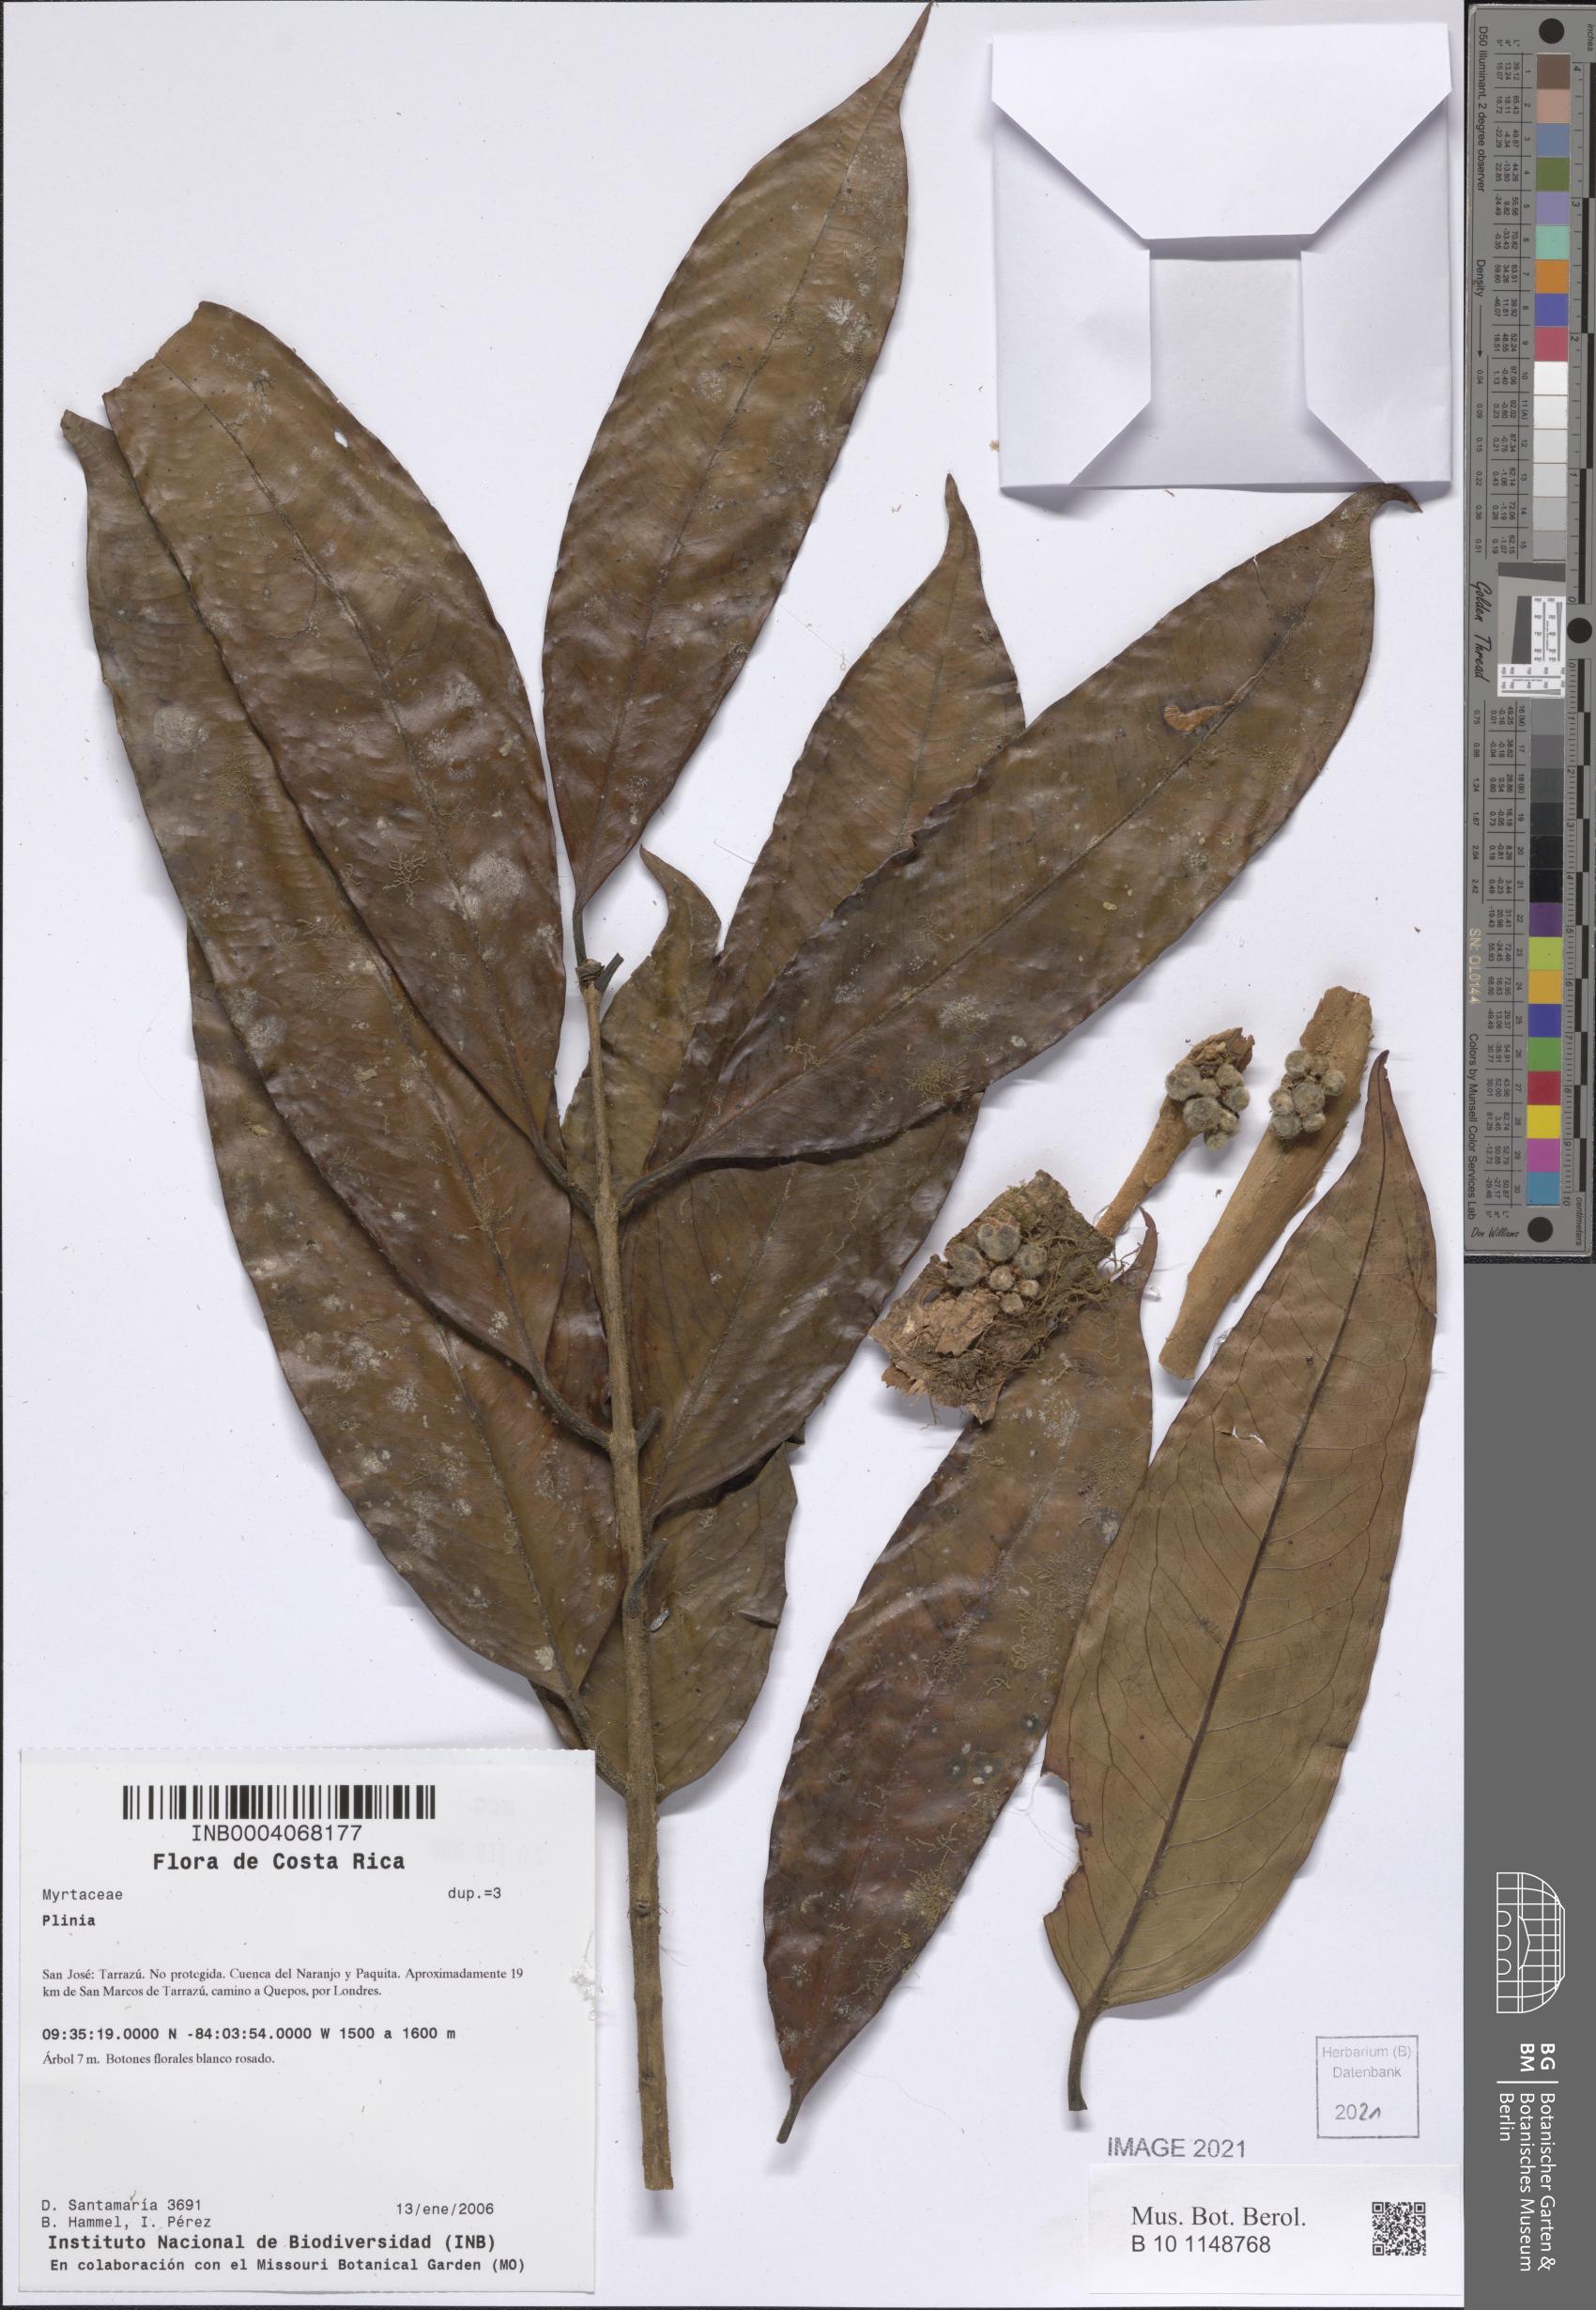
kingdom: Plantae
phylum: Tracheophyta
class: Magnoliopsida
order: Myrtales
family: Myrtaceae
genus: Plinia
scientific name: Plinia
